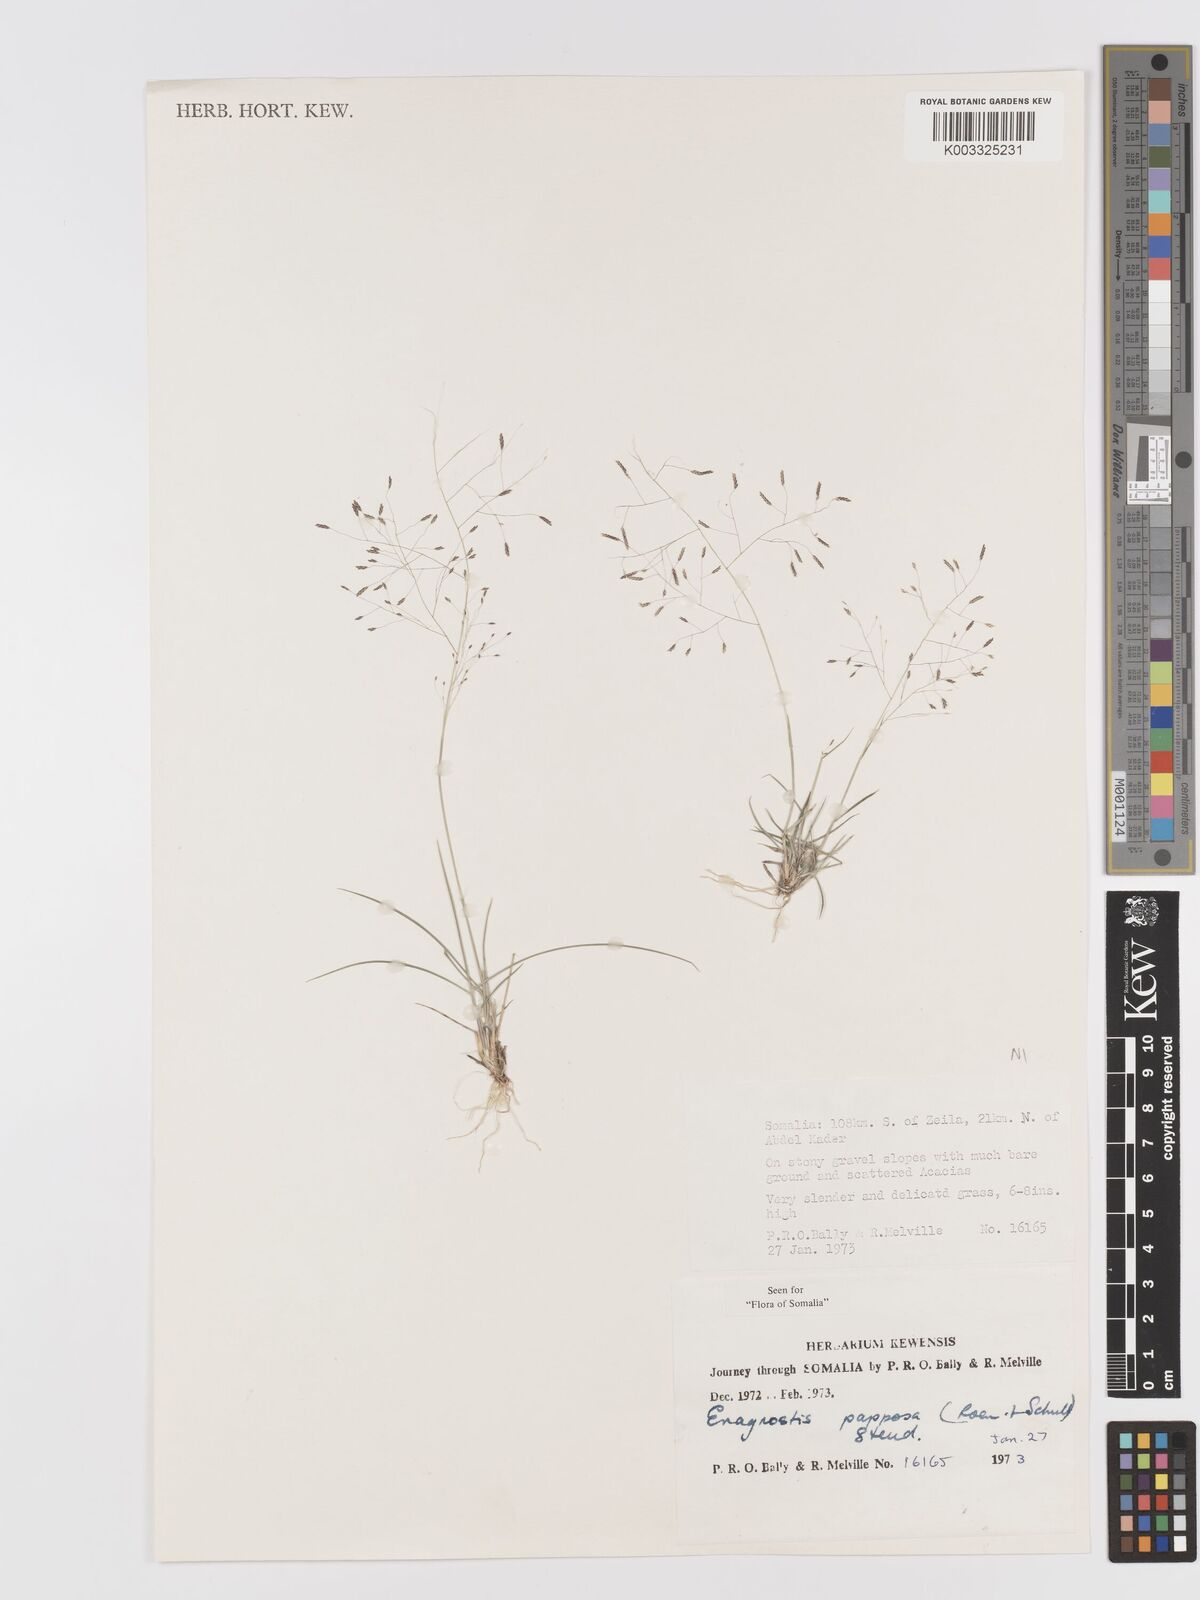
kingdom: Plantae
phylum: Tracheophyta
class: Liliopsida
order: Poales
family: Poaceae
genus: Eragrostis
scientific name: Eragrostis papposa
